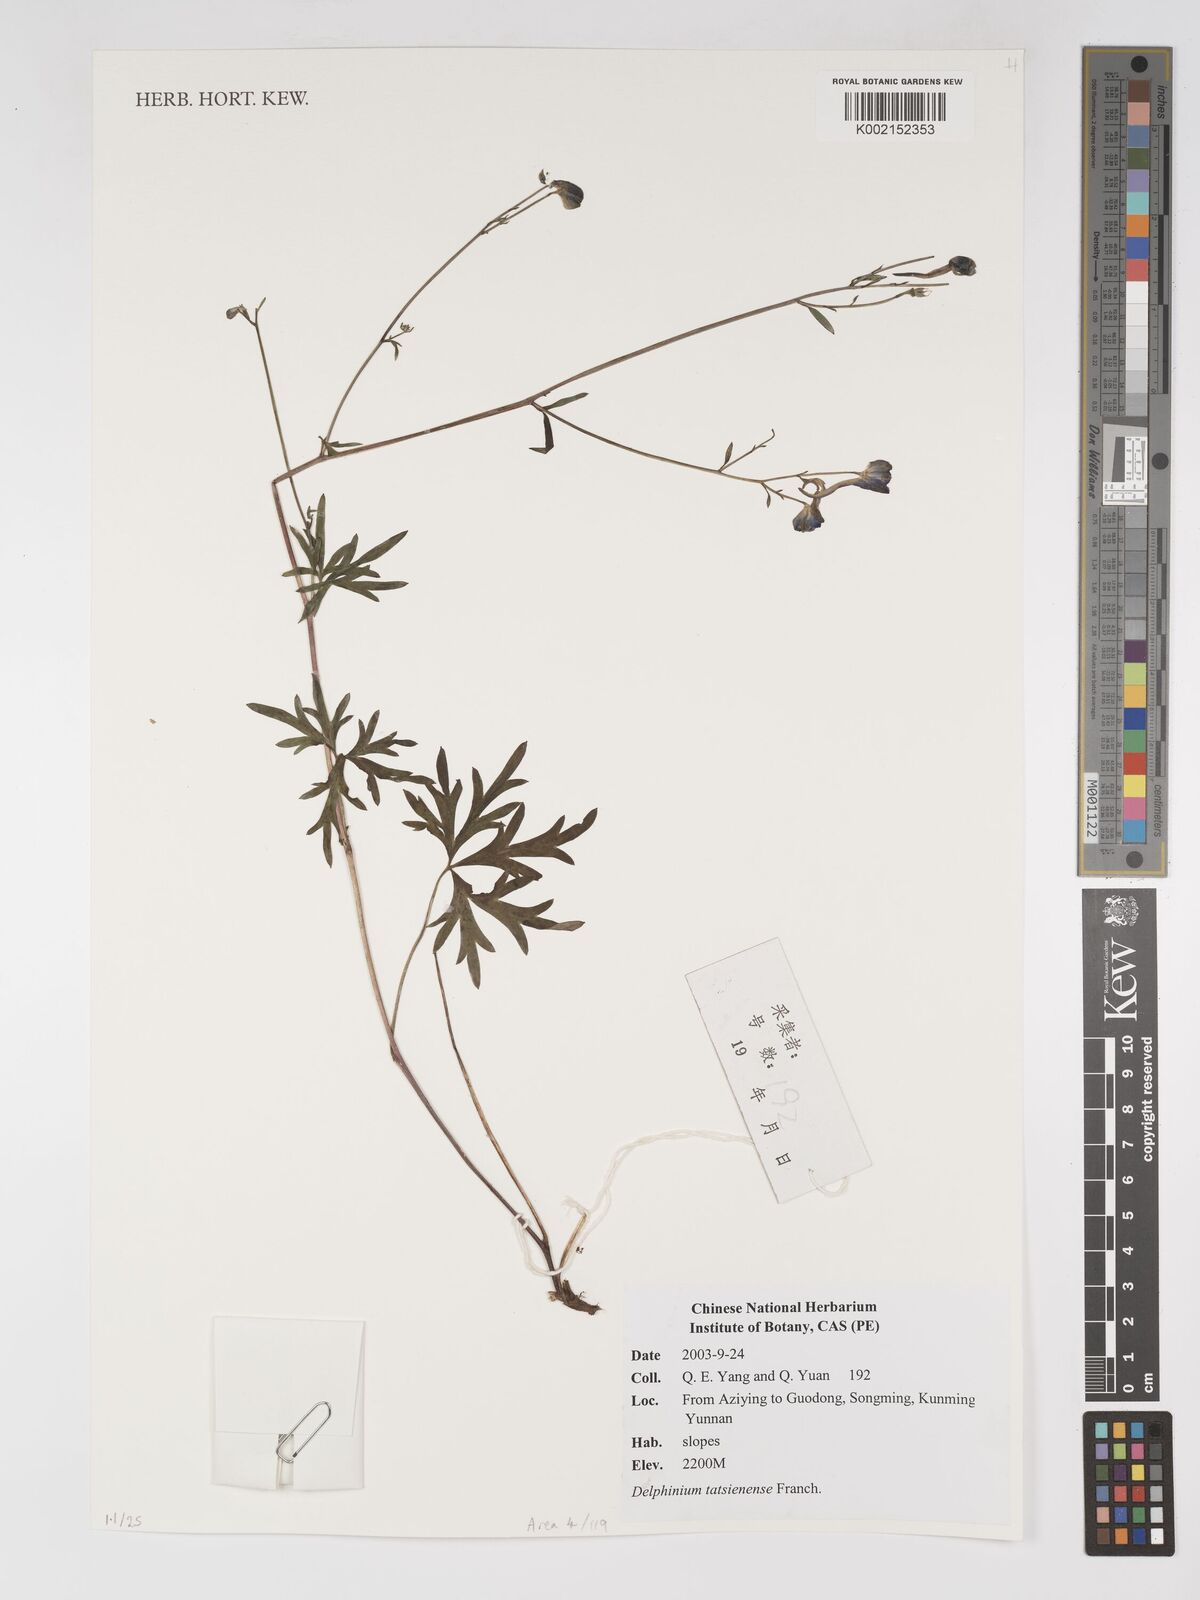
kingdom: Plantae
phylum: Tracheophyta
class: Magnoliopsida
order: Ranunculales
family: Ranunculaceae
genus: Delphinium
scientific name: Delphinium tatsienense
